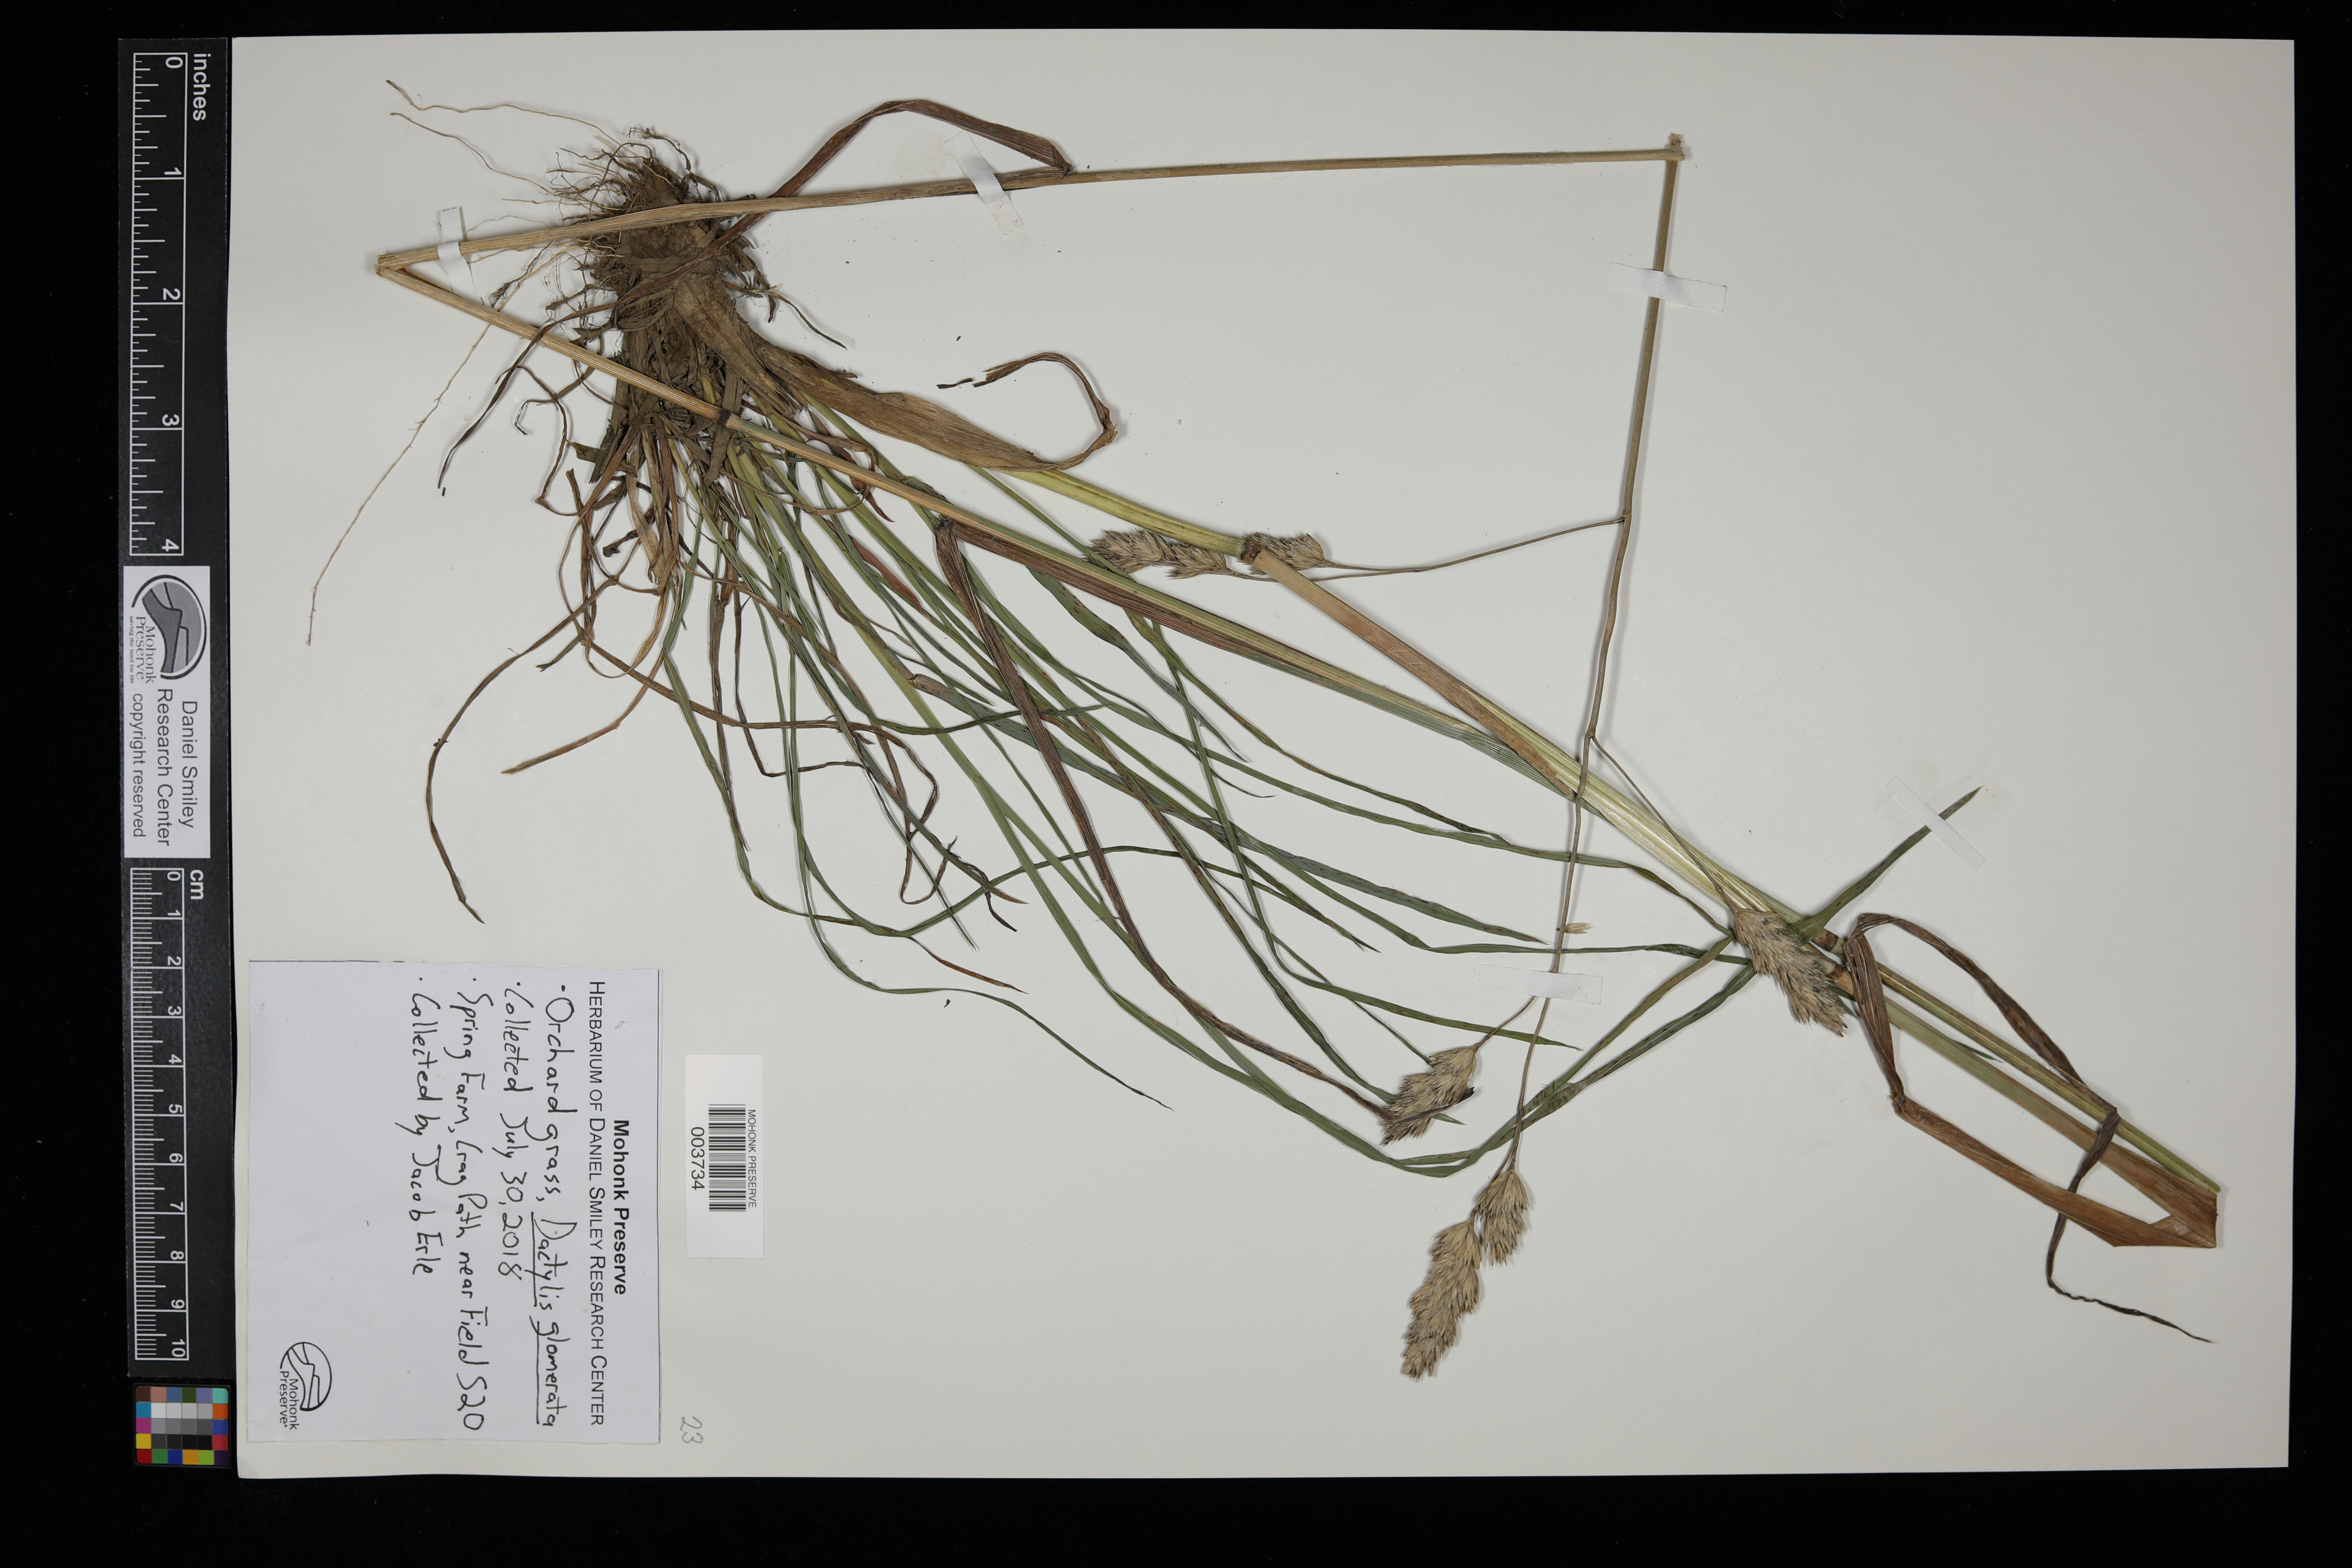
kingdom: Plantae
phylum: Tracheophyta
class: Liliopsida
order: Poales
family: Poaceae
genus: Dactylis
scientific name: Dactylis glomerata
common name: Orchardgrass
